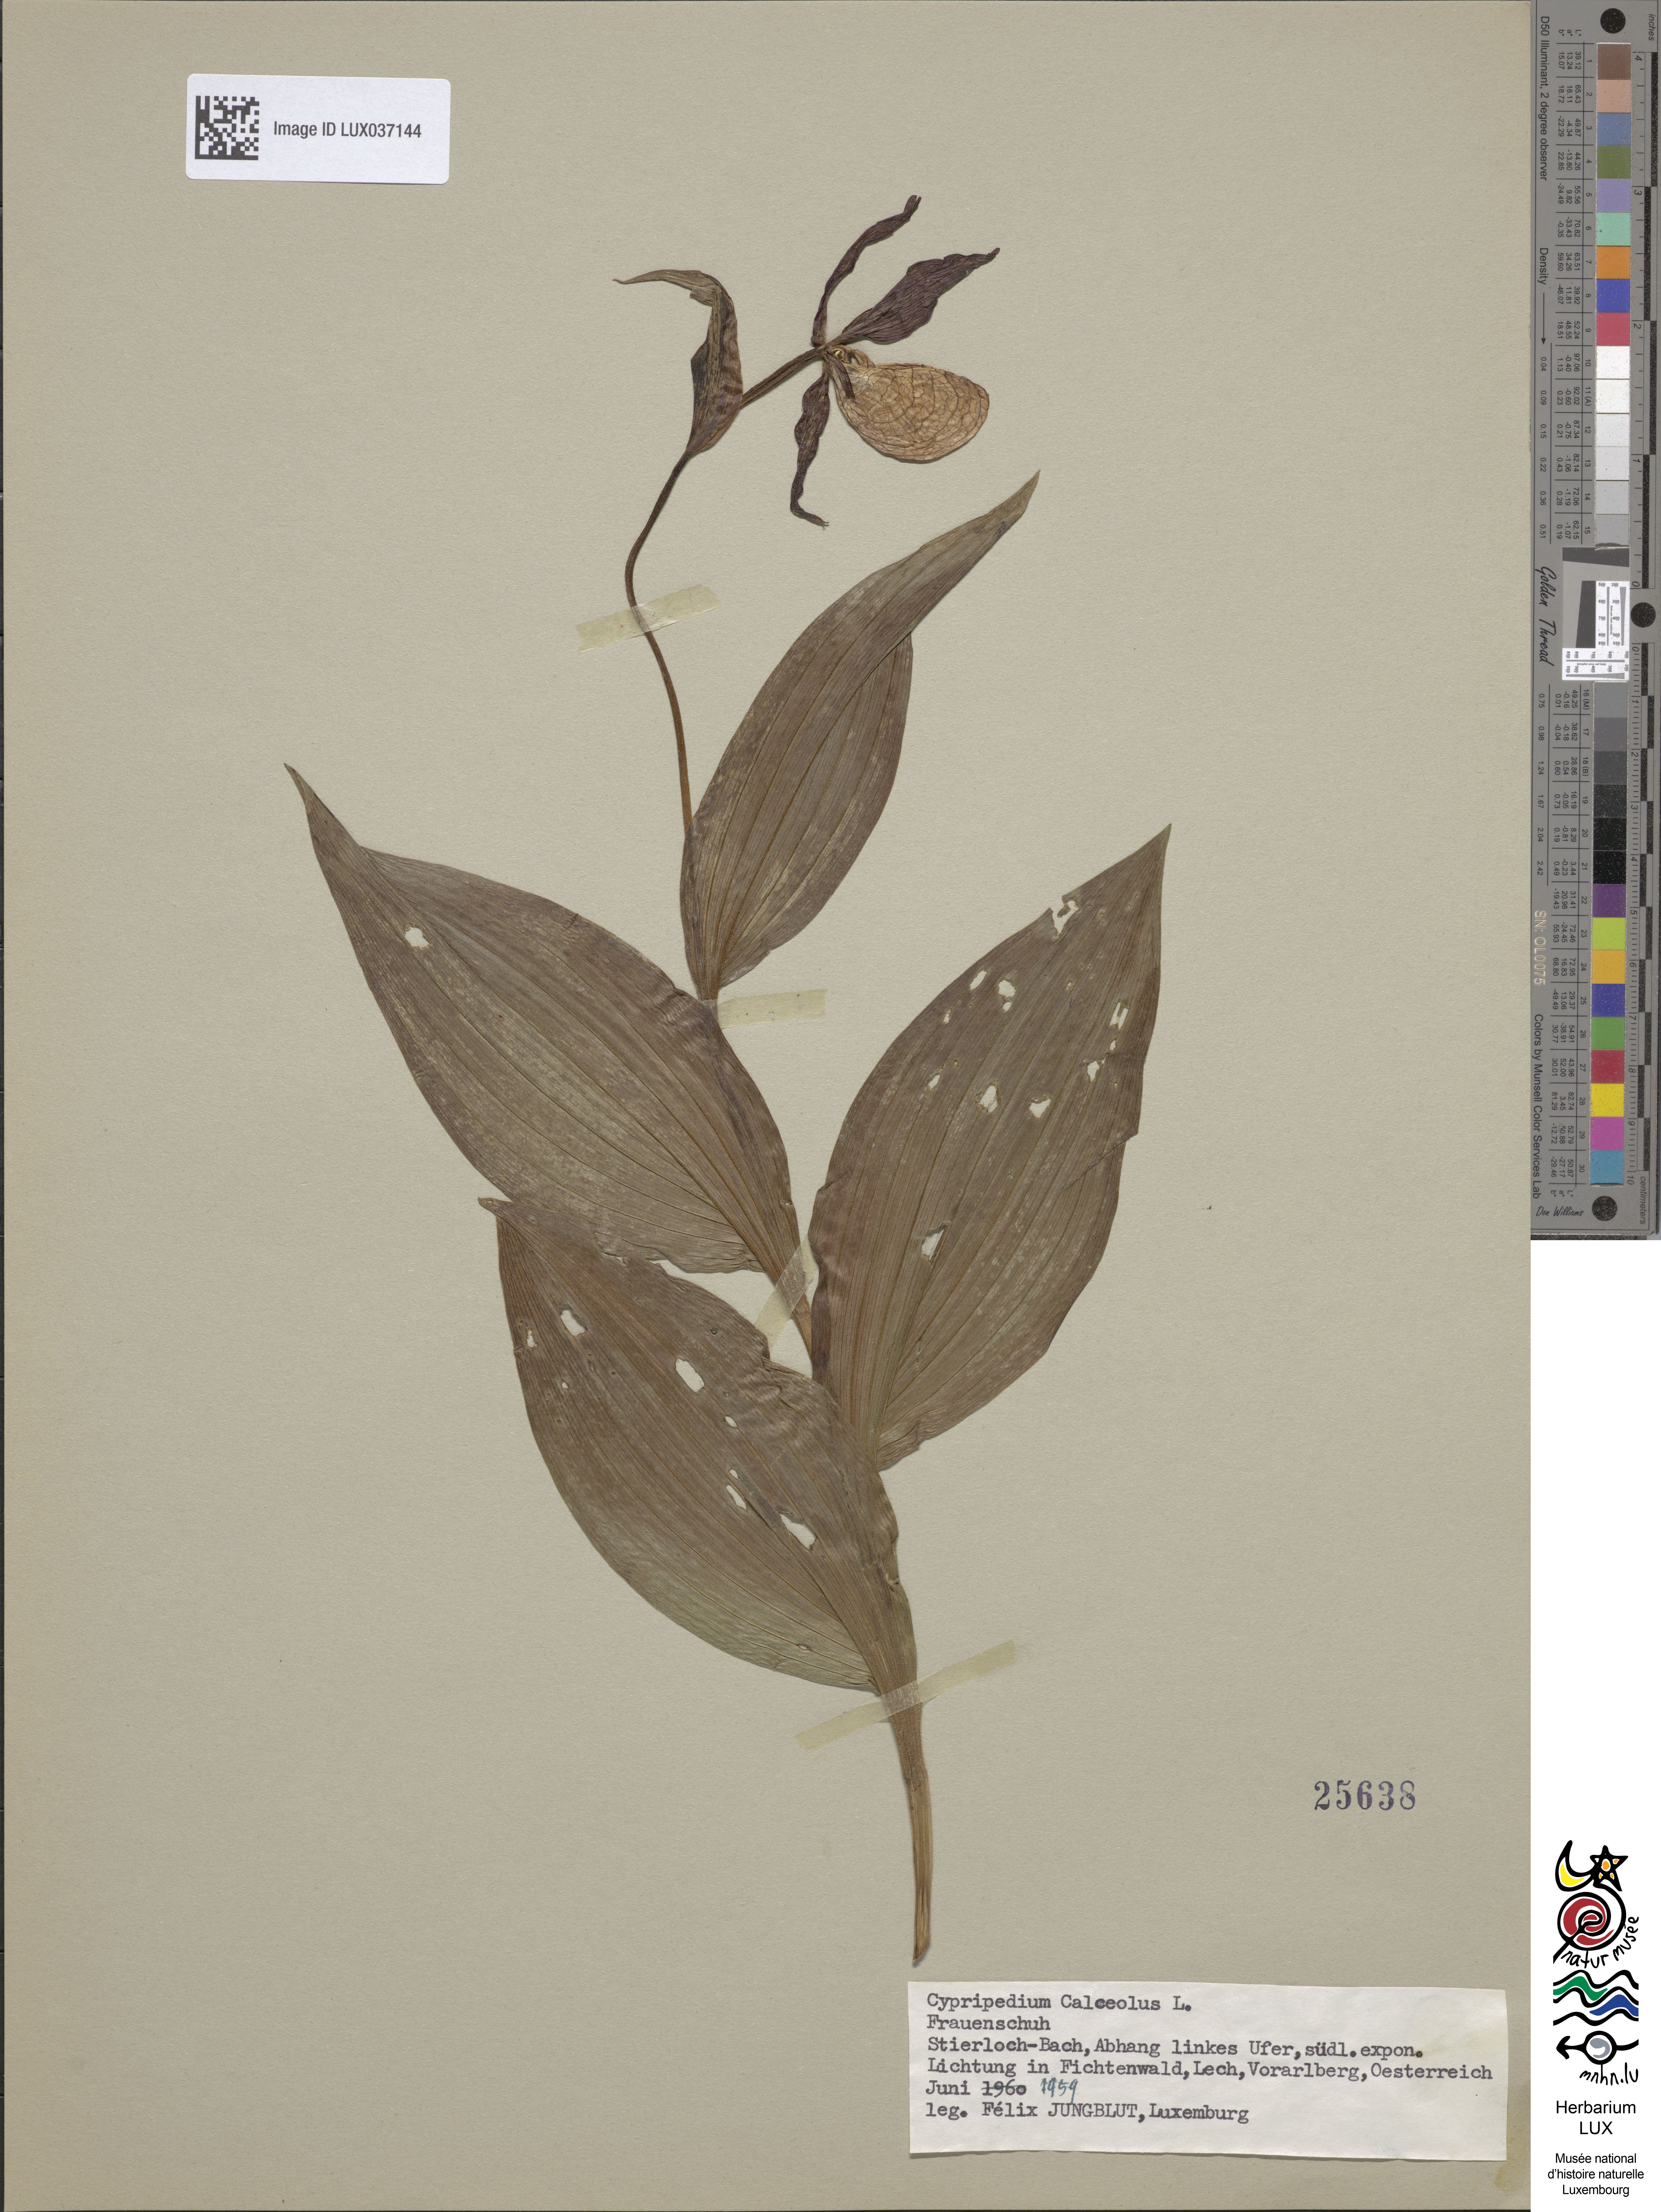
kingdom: Plantae
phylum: Tracheophyta
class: Liliopsida
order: Asparagales
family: Orchidaceae
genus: Cypripedium
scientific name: Cypripedium calceolus
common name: Lady's-slipper
